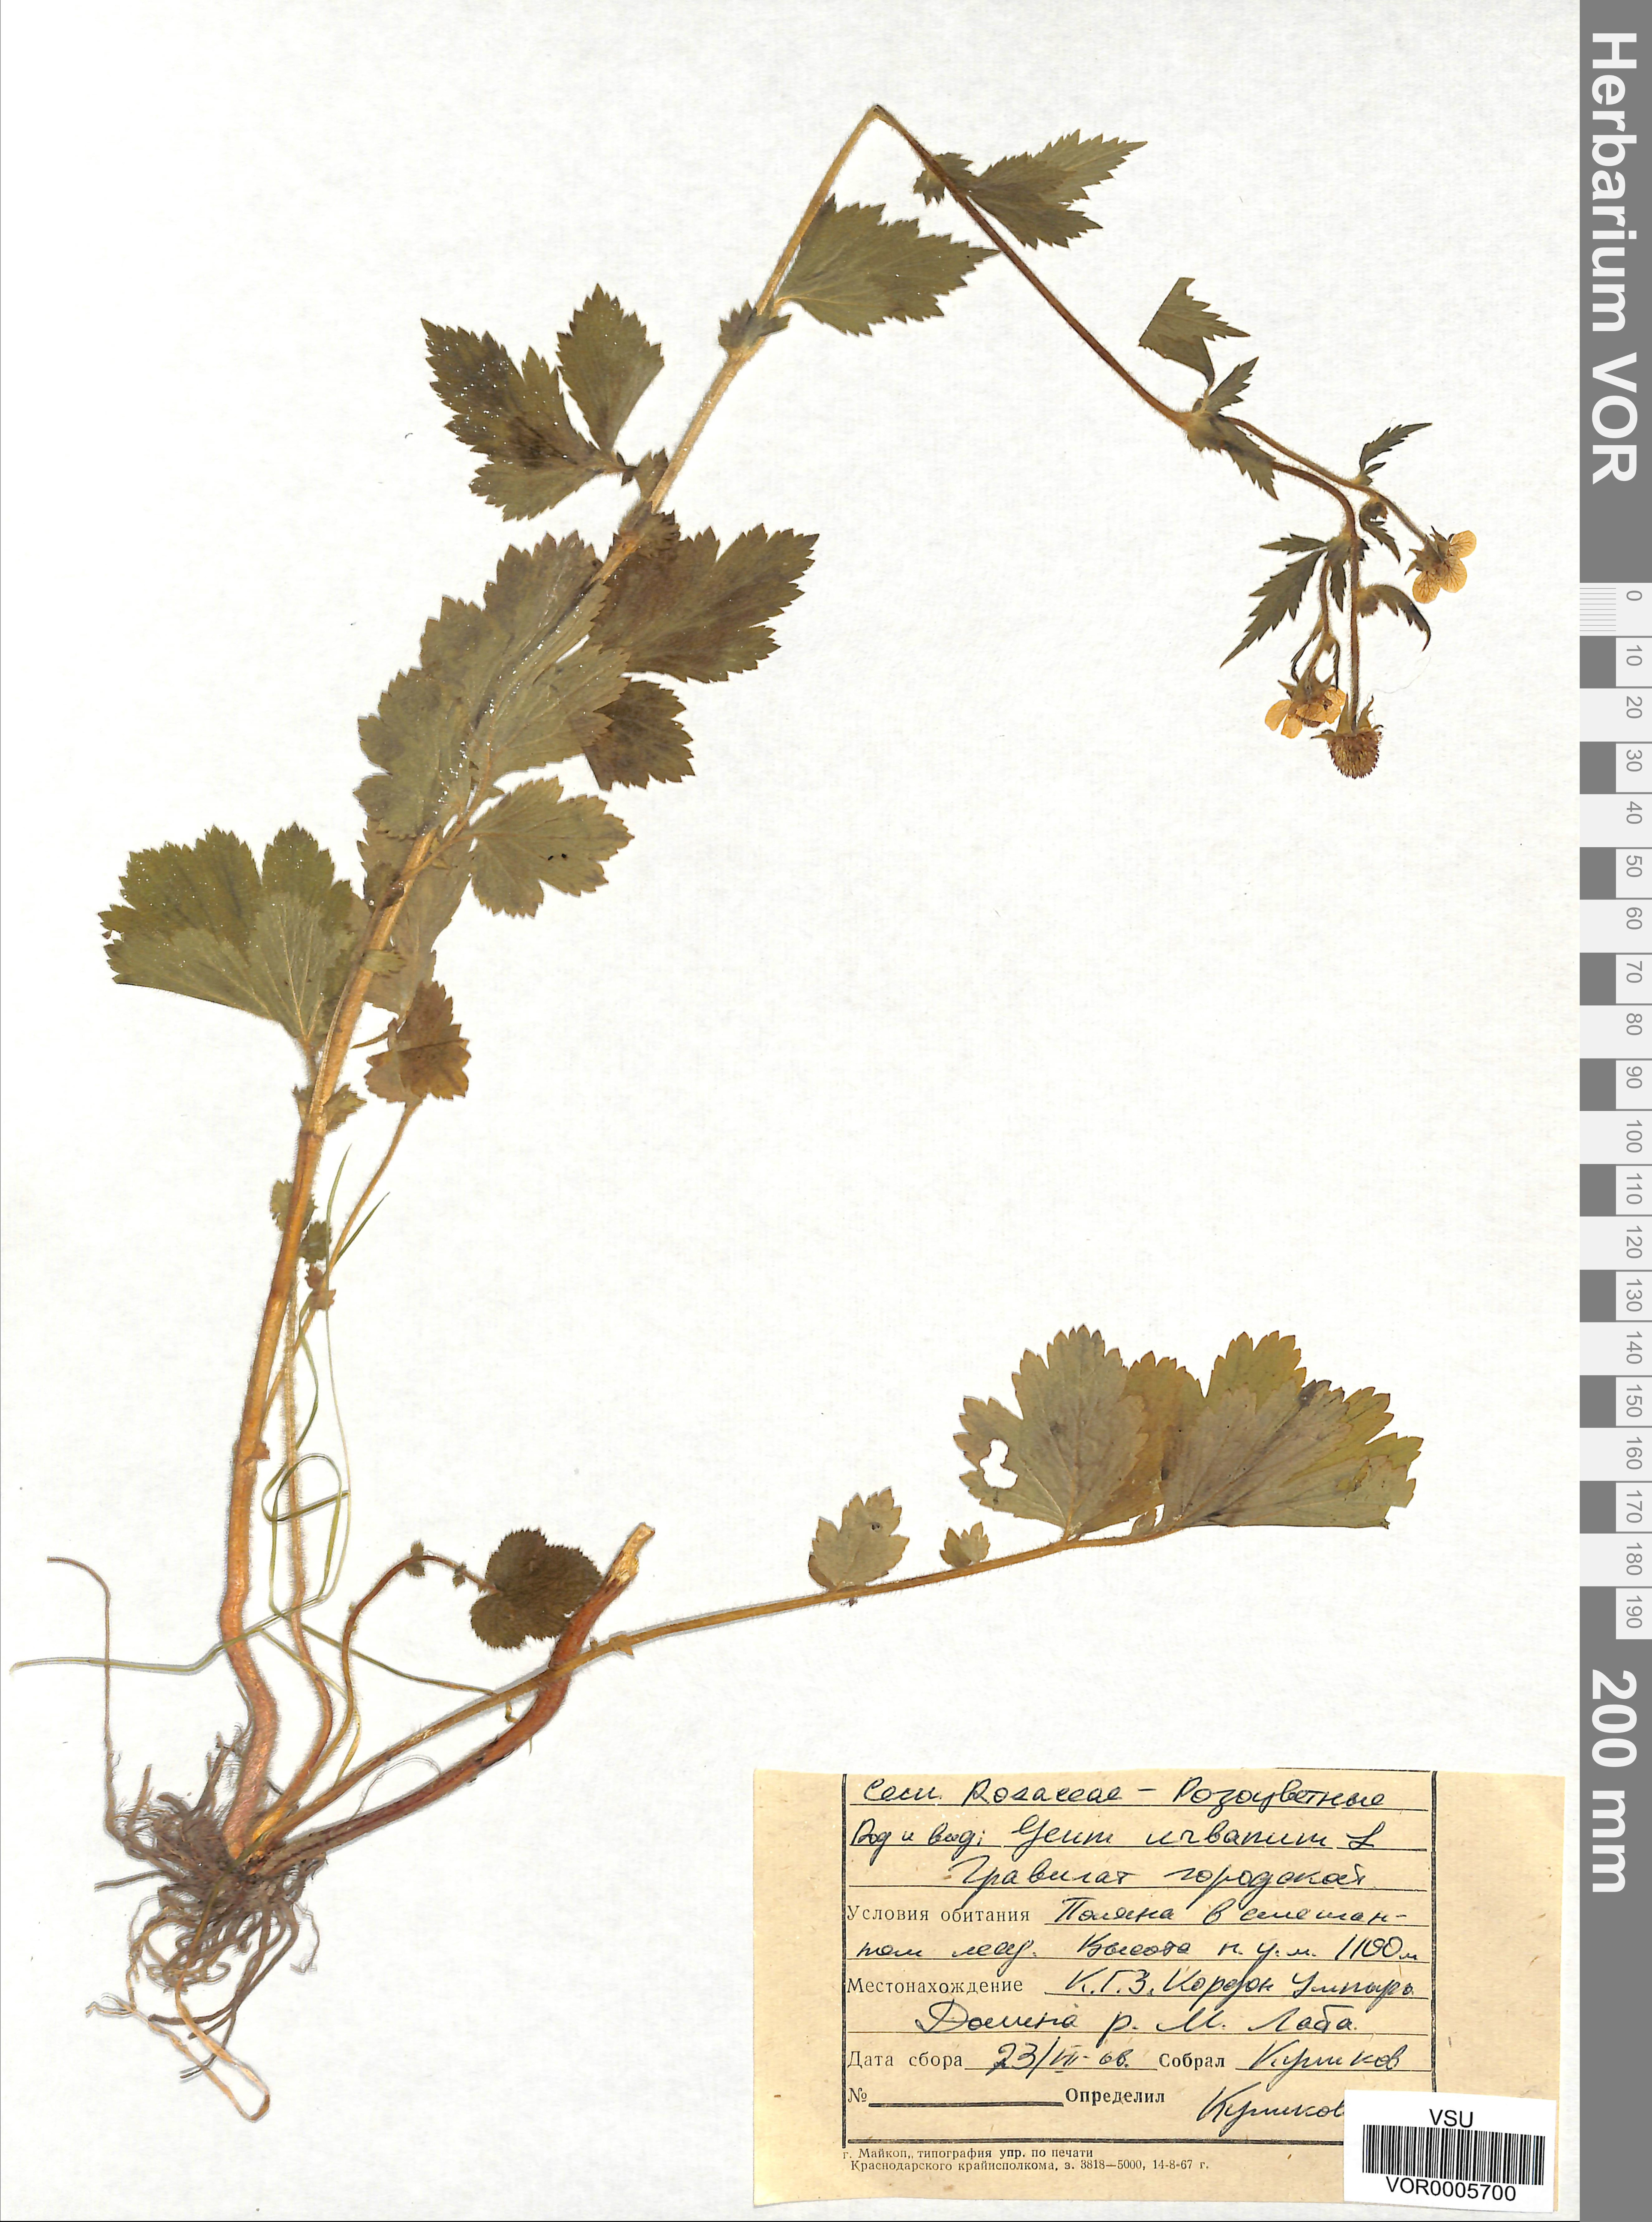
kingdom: Plantae
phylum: Tracheophyta
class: Magnoliopsida
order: Rosales
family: Rosaceae
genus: Geum
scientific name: Geum urbanum
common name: Wood avens
